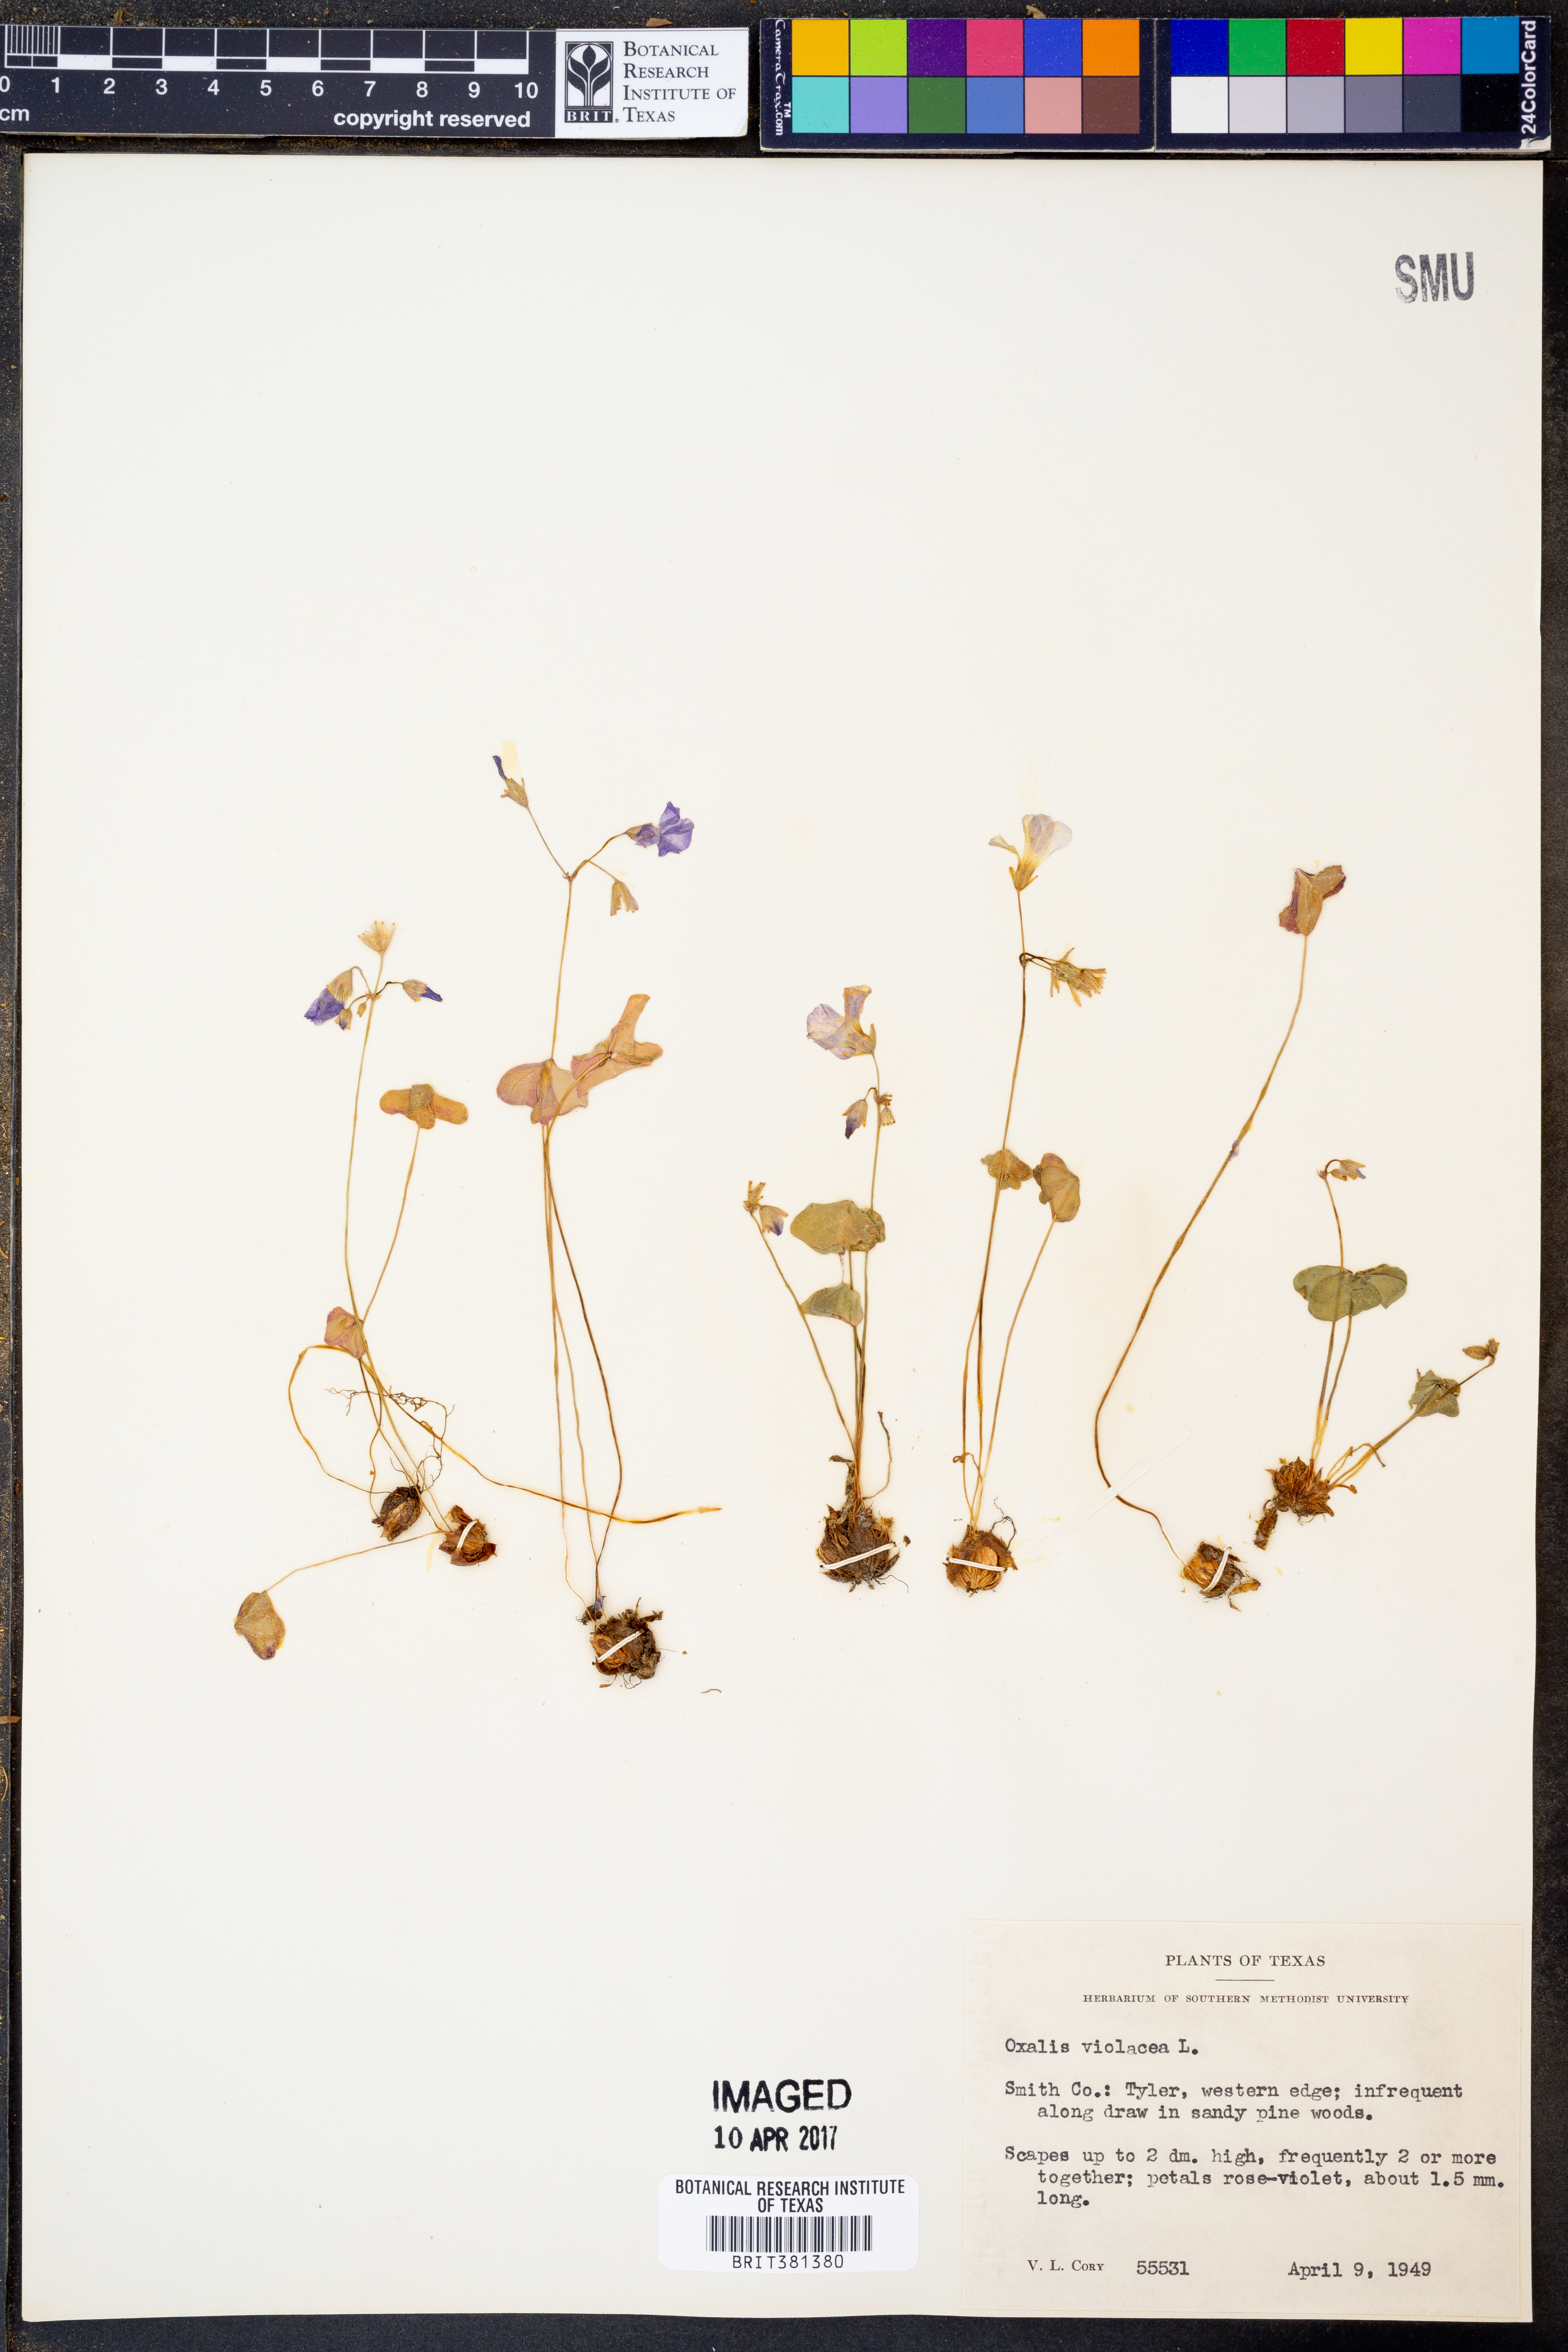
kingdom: Plantae
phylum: Tracheophyta
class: Magnoliopsida
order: Oxalidales
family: Oxalidaceae
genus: Oxalis
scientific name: Oxalis violacea
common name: Violet wood-sorrel
